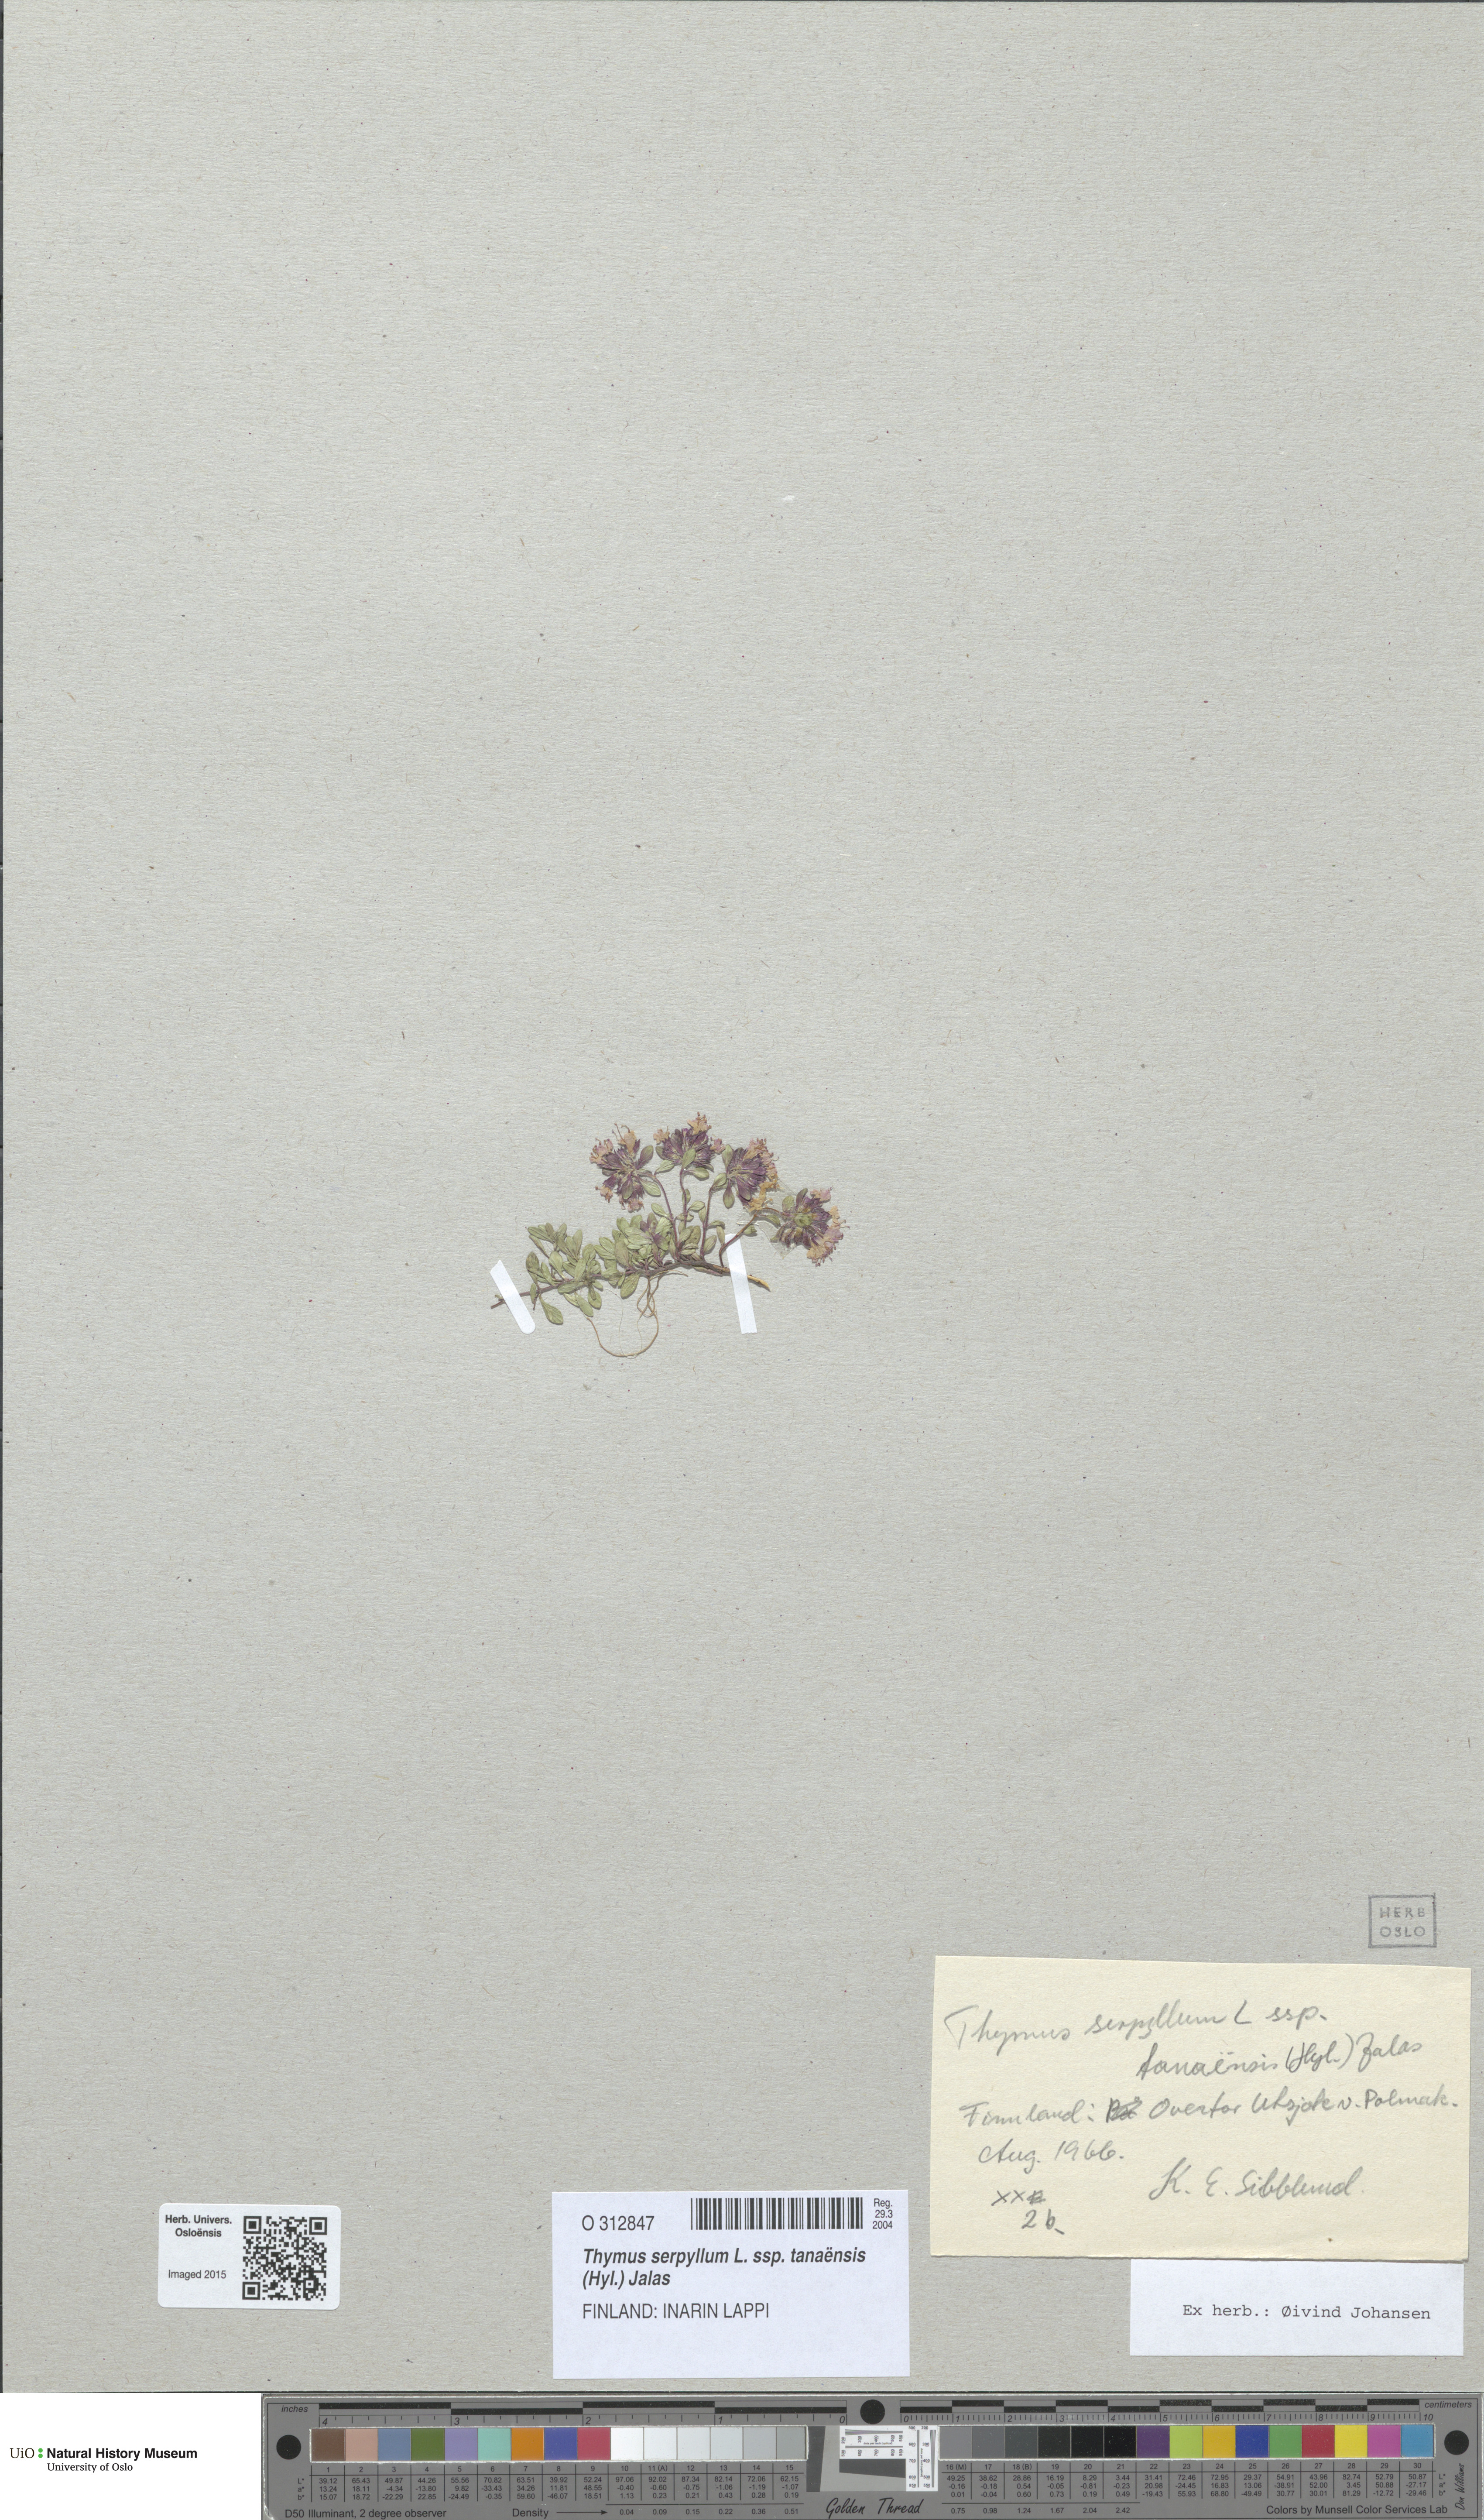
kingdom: Plantae
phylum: Tracheophyta
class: Magnoliopsida
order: Lamiales
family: Lamiaceae
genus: Thymus
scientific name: Thymus serpyllum
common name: Breckland thyme
